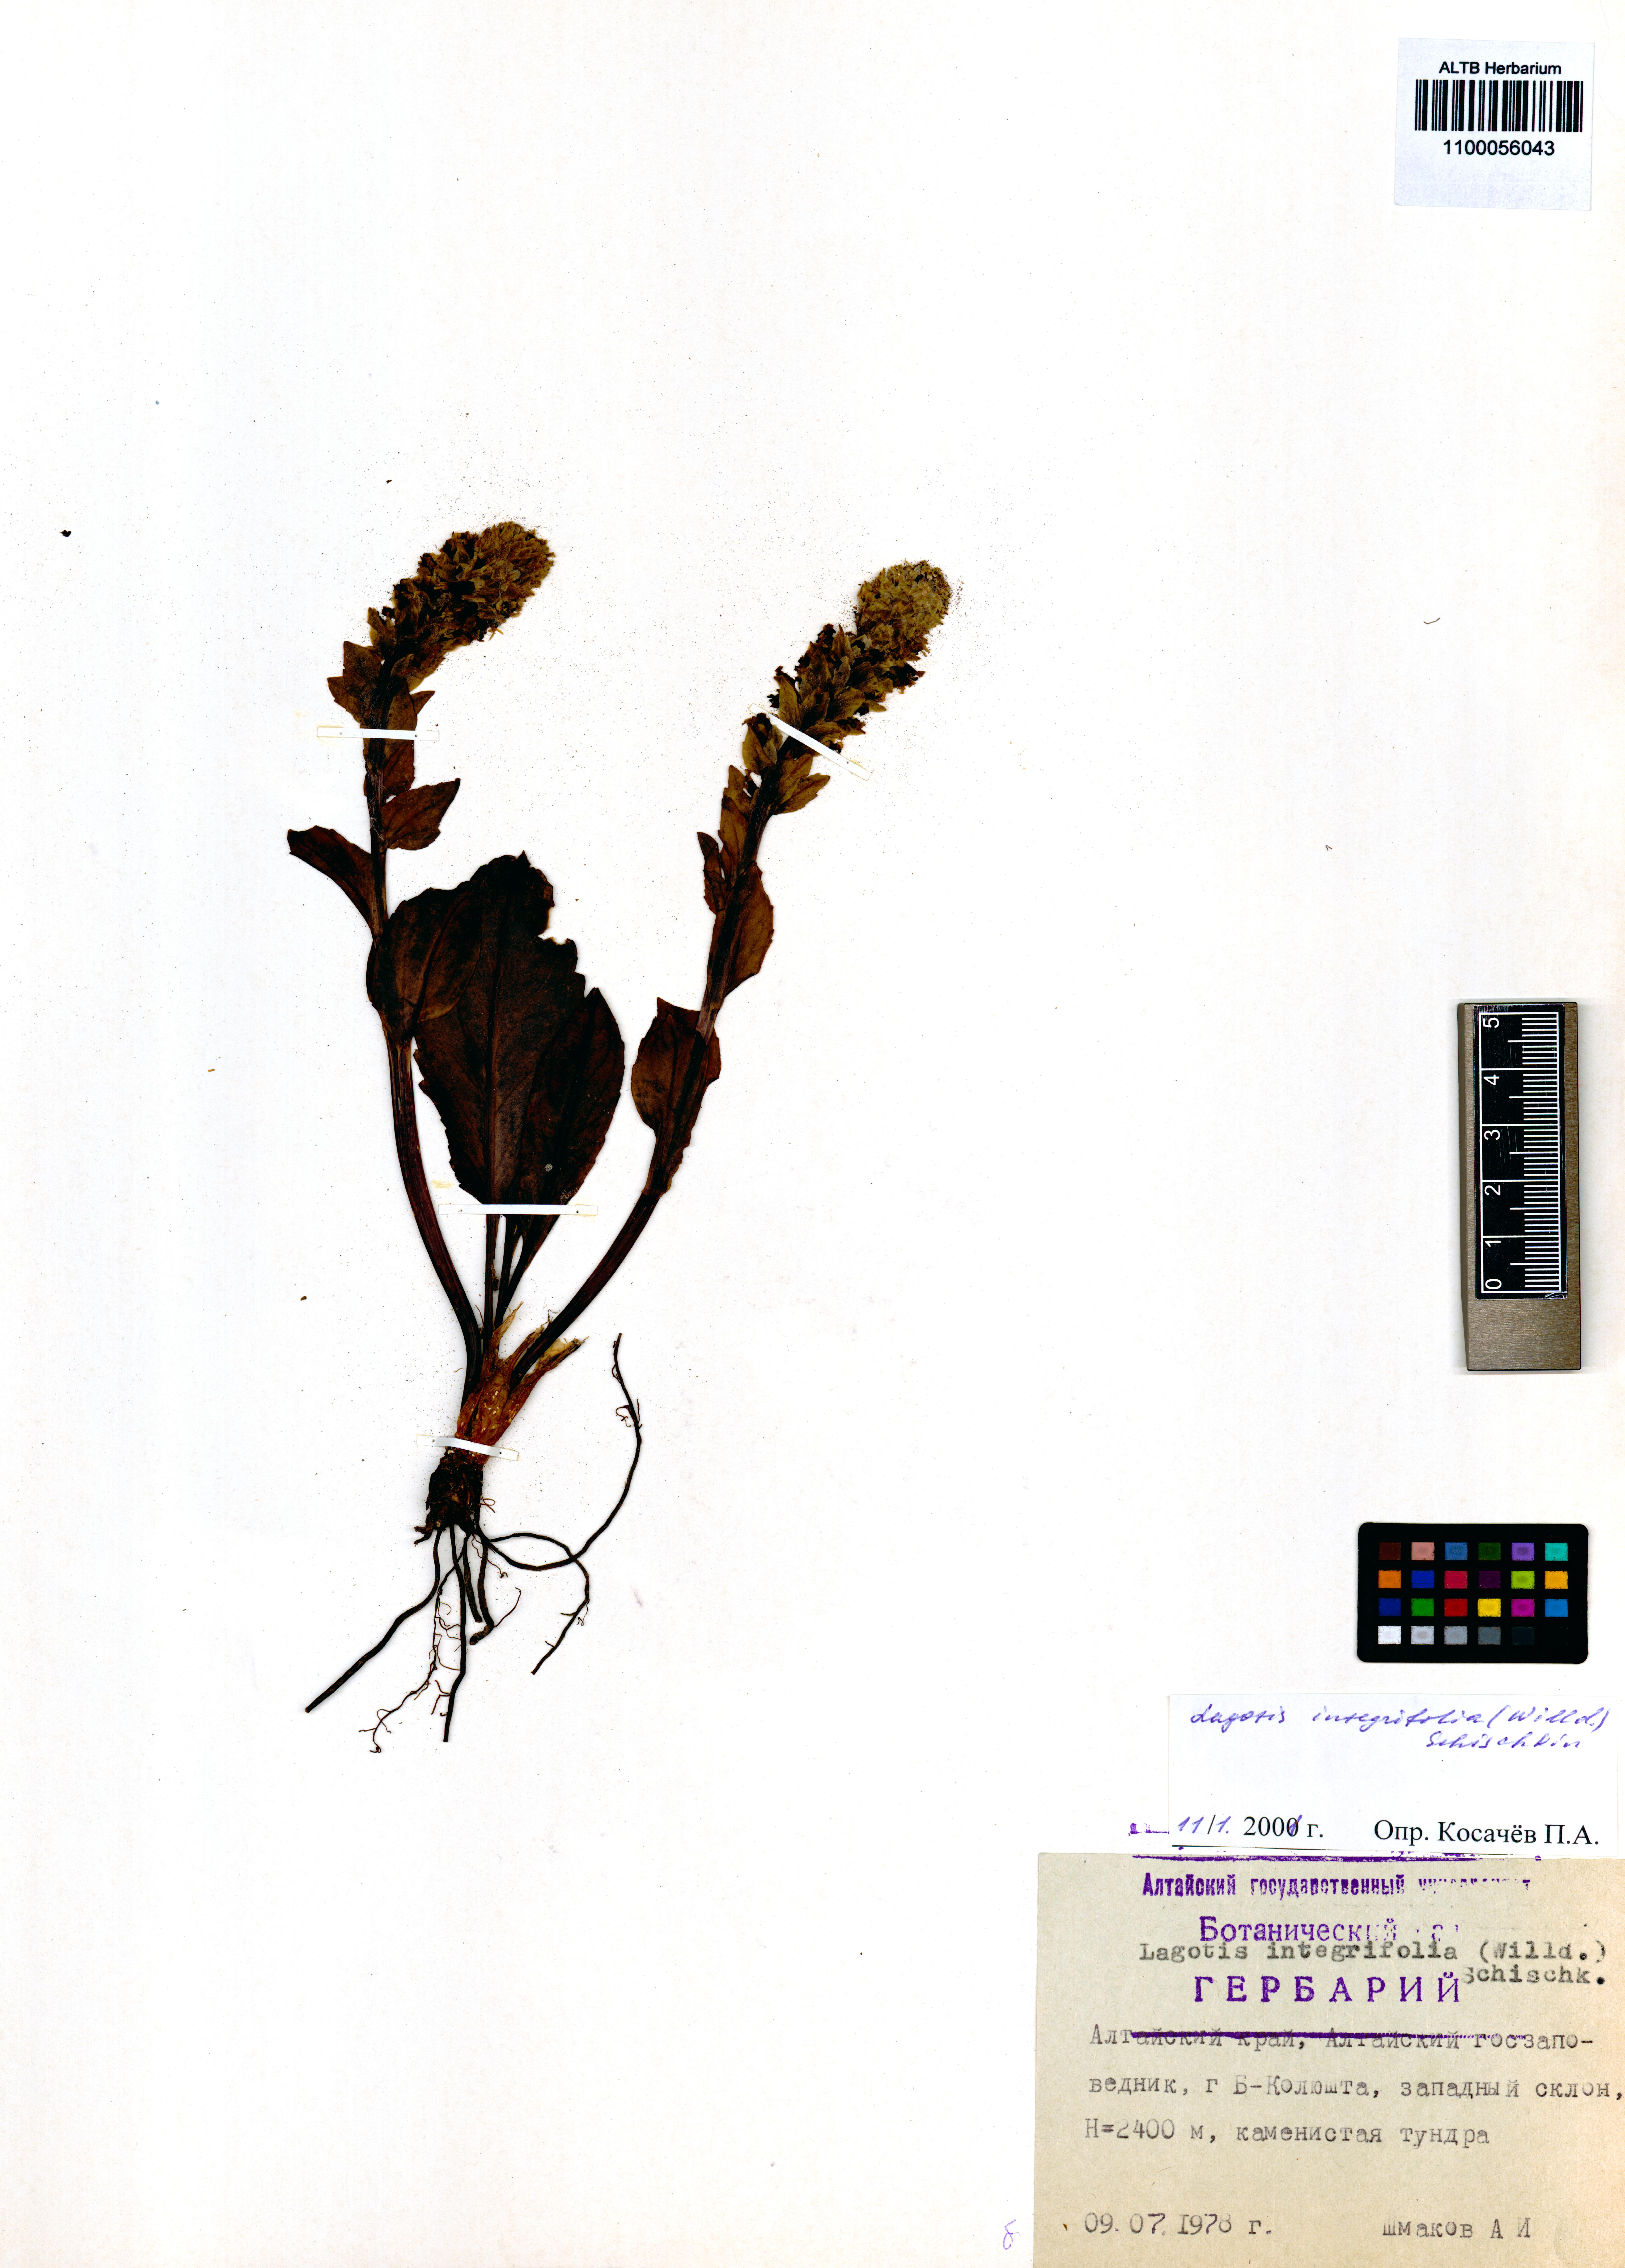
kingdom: Plantae
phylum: Tracheophyta
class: Magnoliopsida
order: Lamiales
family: Plantaginaceae
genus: Lagotis
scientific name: Lagotis integrifolia
